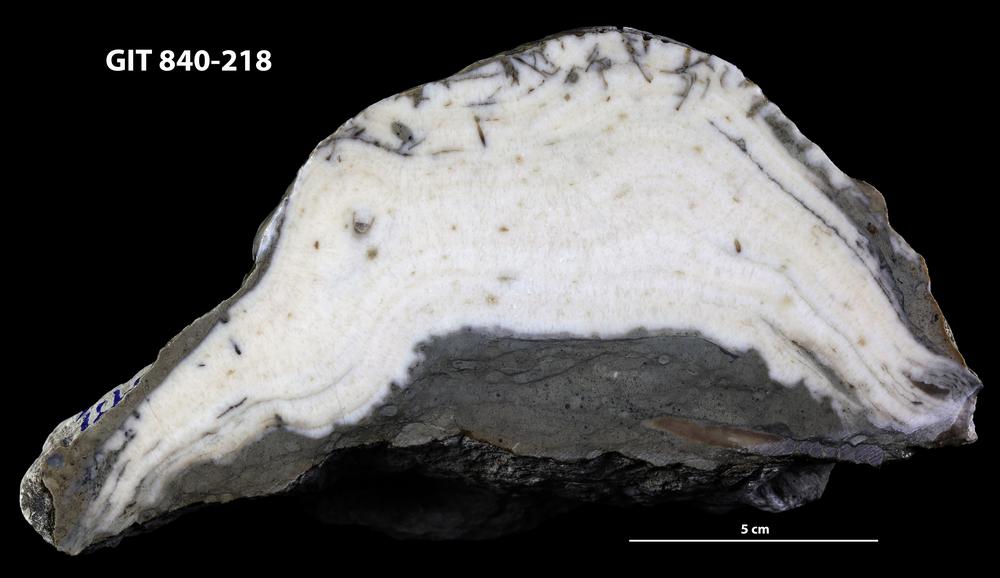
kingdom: Animalia
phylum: Cnidaria
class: Anthozoa
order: Heliolitina
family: Stelliporellidae
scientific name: Stelliporellidae
